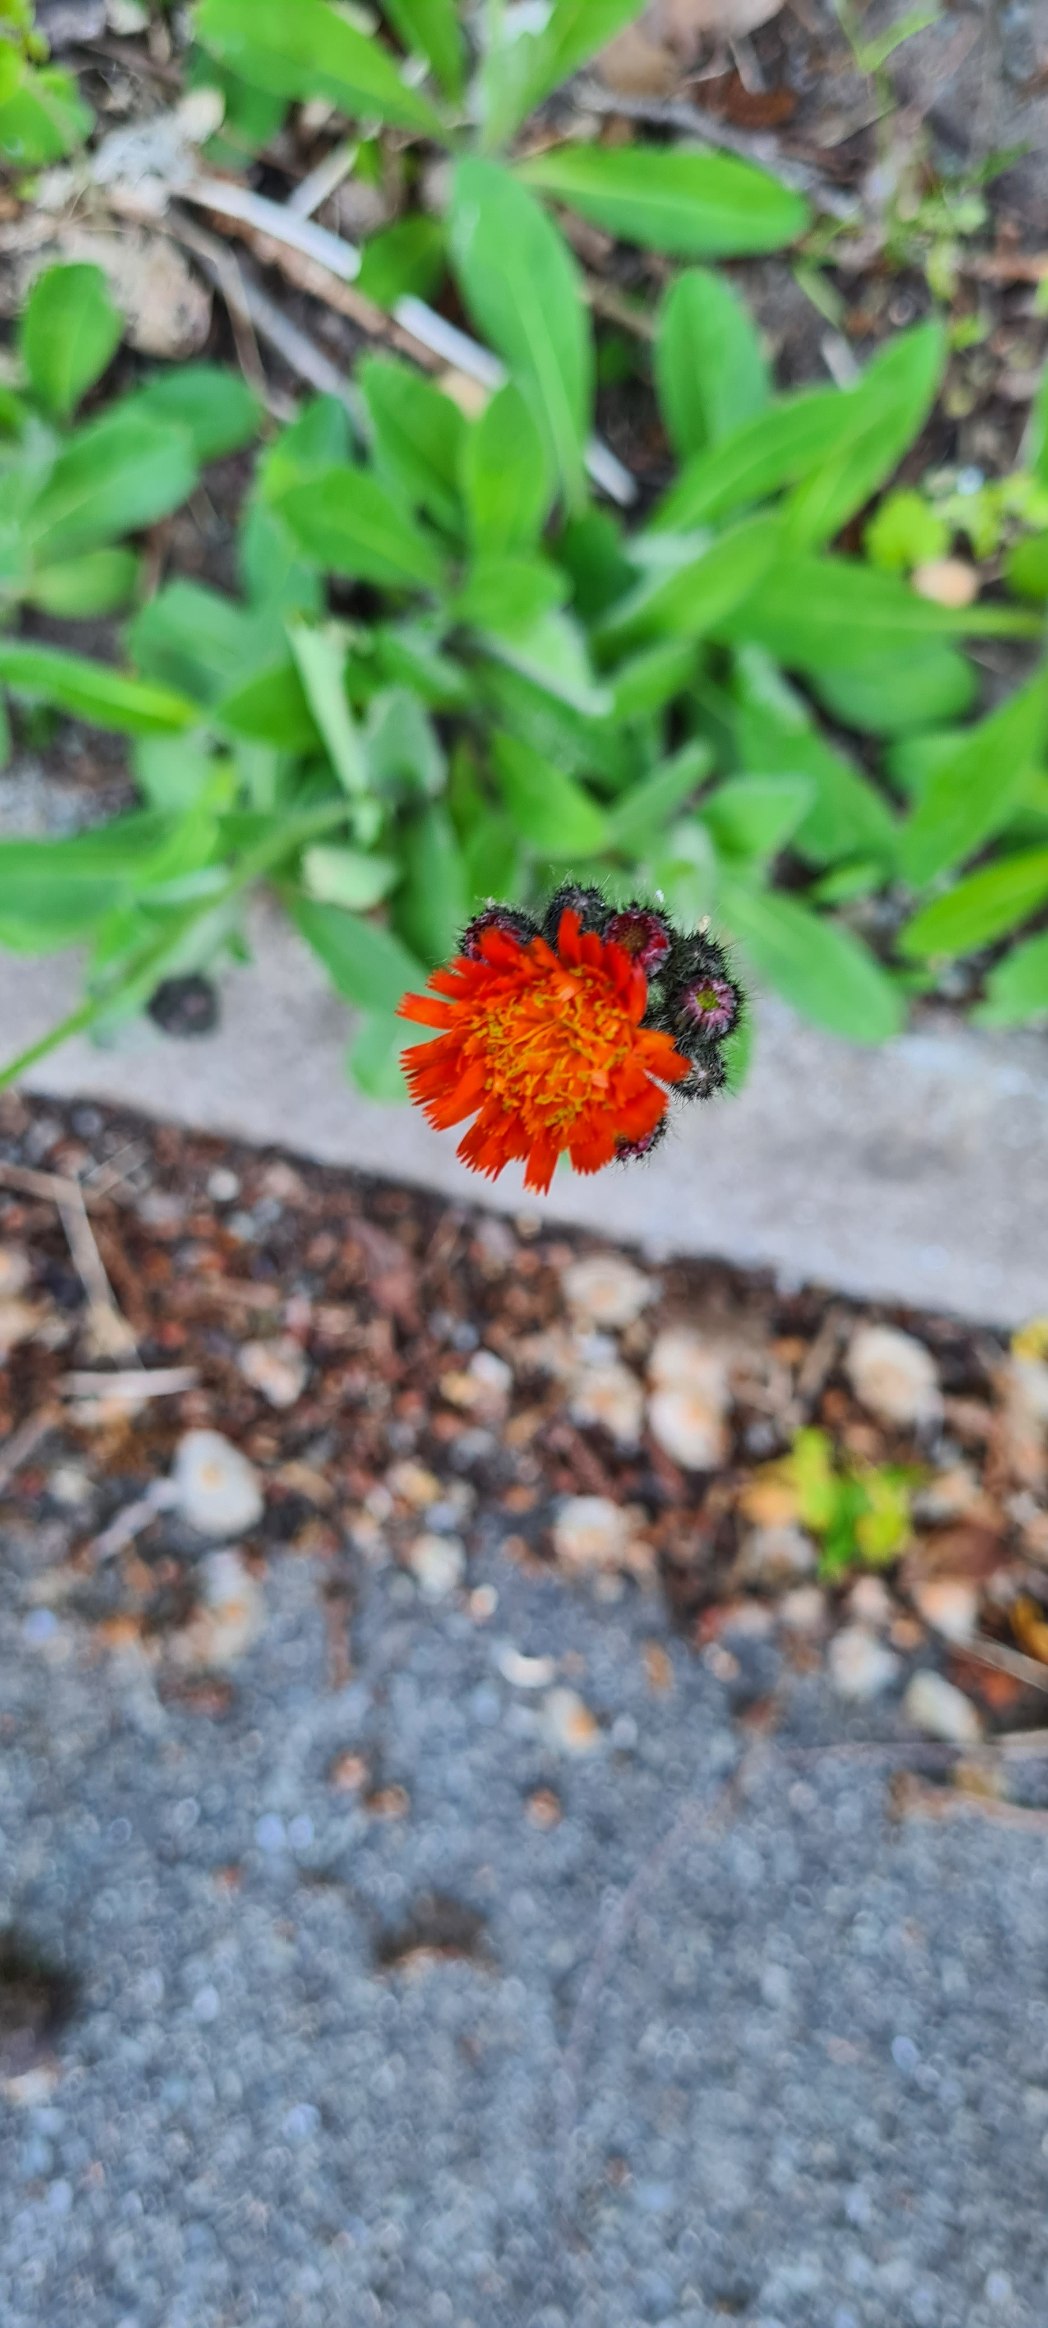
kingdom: Plantae
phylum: Tracheophyta
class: Magnoliopsida
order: Asterales
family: Asteraceae
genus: Pilosella
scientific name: Pilosella aurantiaca
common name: Pomerans-høgeurt
